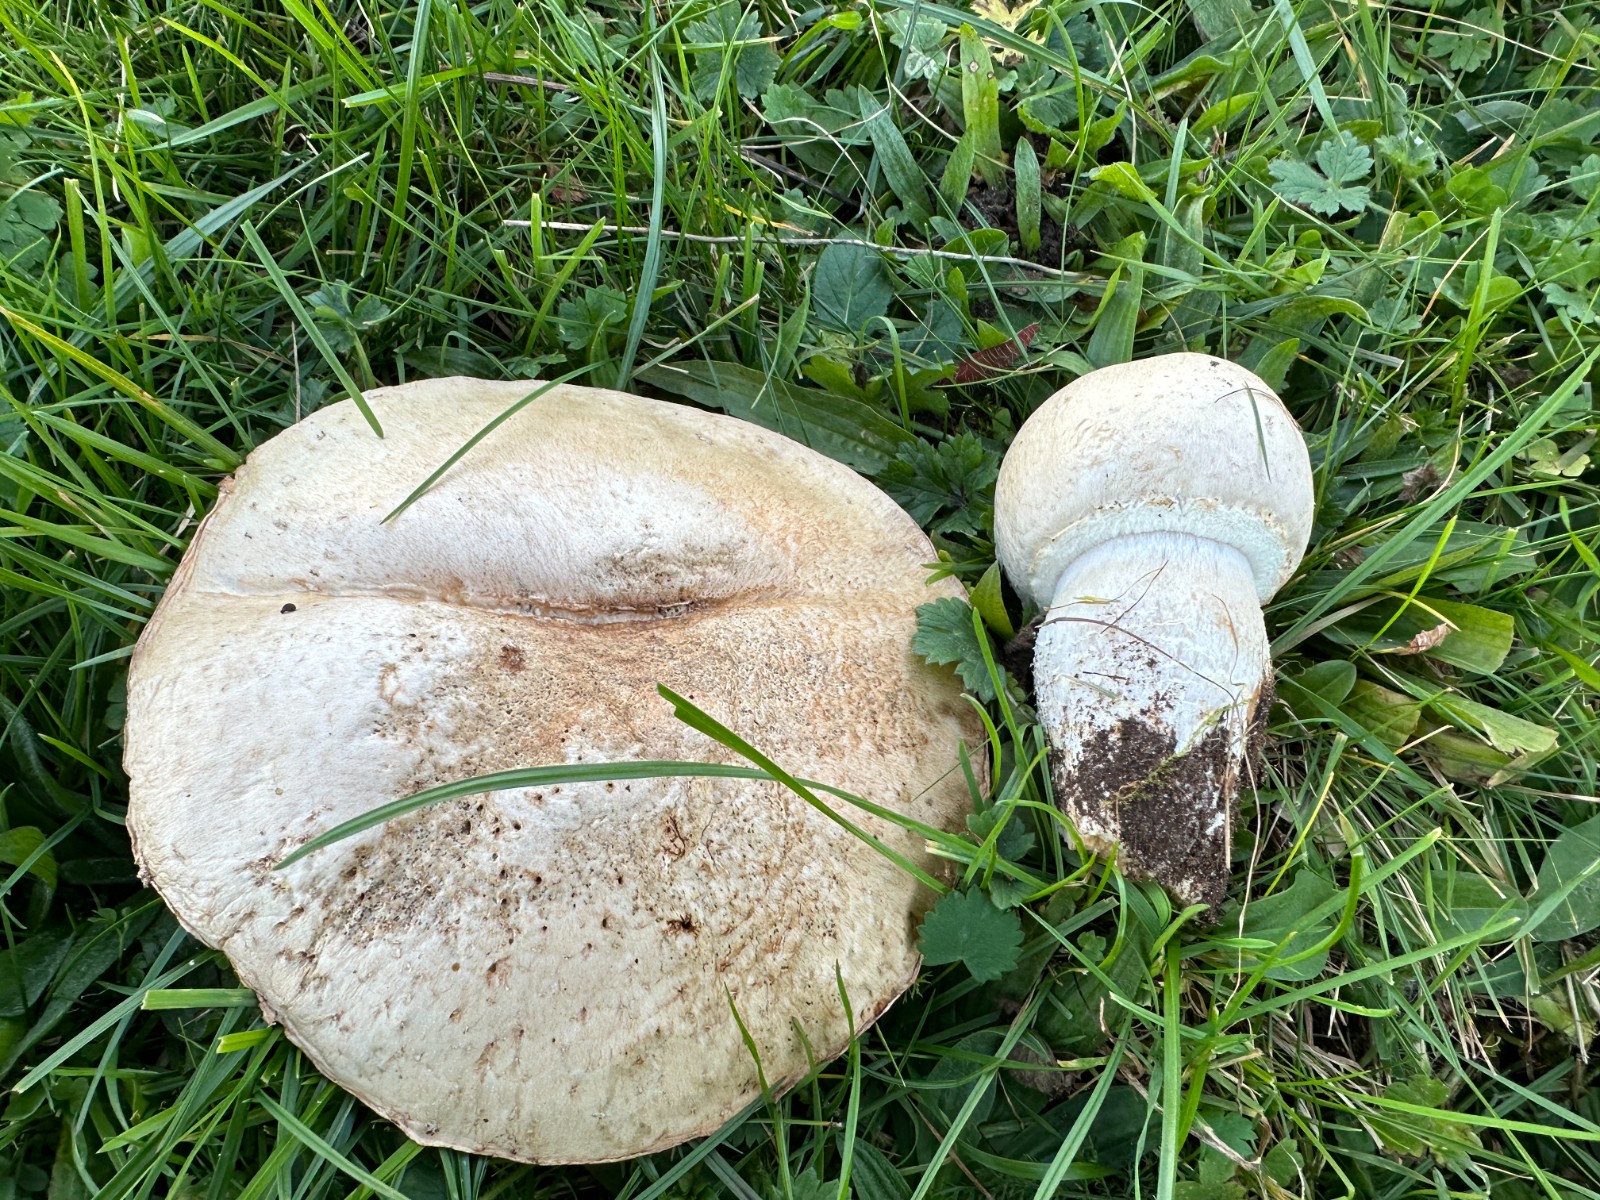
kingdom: Fungi
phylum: Basidiomycota
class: Agaricomycetes
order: Agaricales
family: Agaricaceae
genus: Agaricus
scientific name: Agaricus crocodilinus
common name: landsby-champignon
